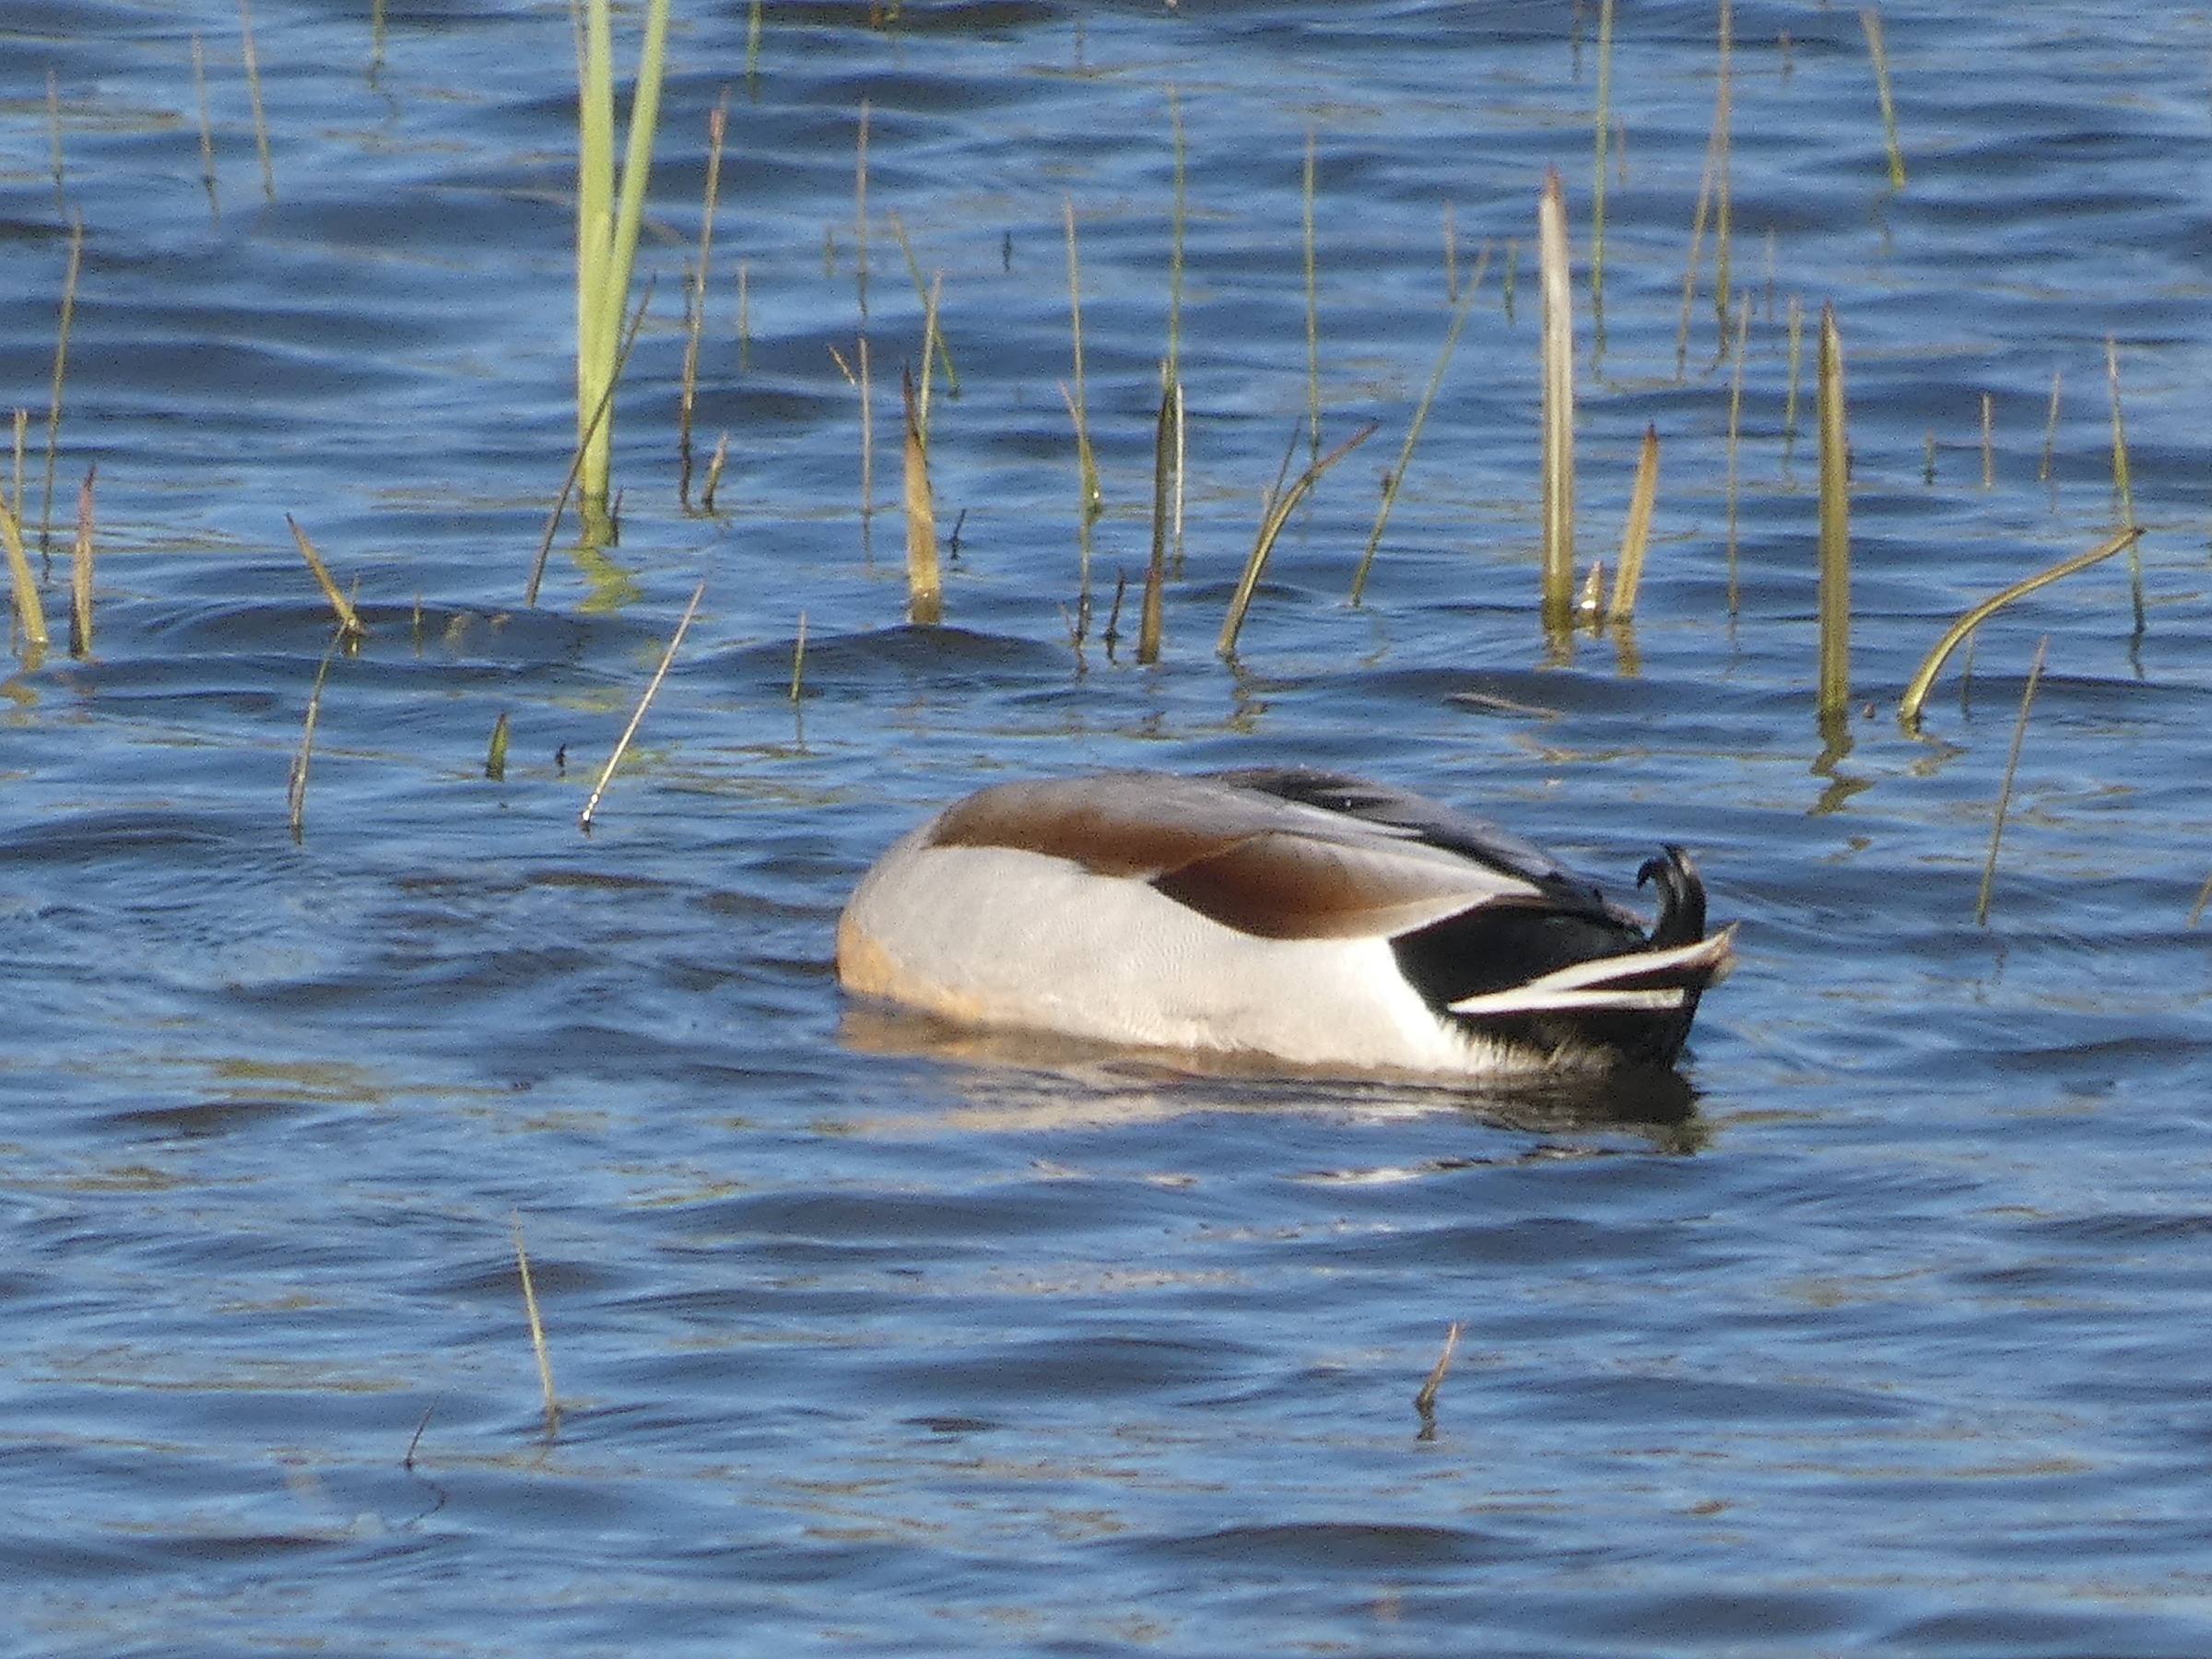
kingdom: Animalia
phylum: Chordata
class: Aves
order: Anseriformes
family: Anatidae
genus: Anas
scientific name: Anas platyrhynchos
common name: Gråand
